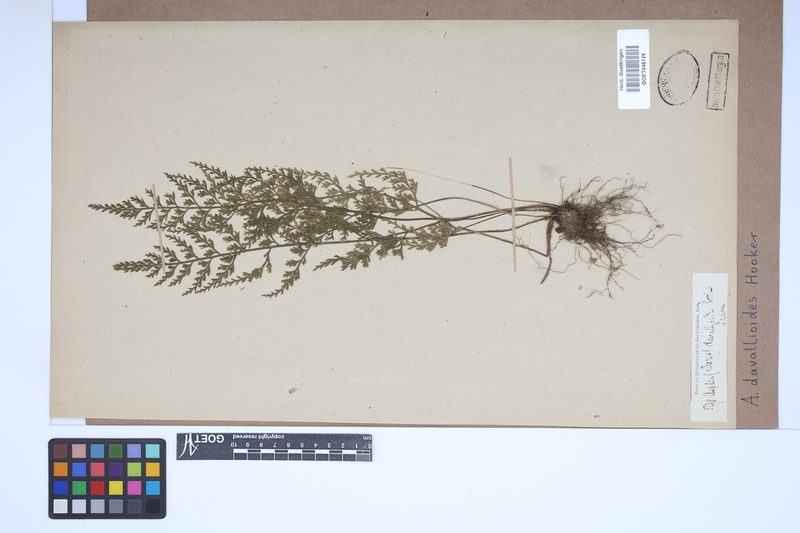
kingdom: Plantae
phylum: Tracheophyta
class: Polypodiopsida
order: Polypodiales
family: Aspleniaceae
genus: Asplenium
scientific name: Asplenium ritoense
